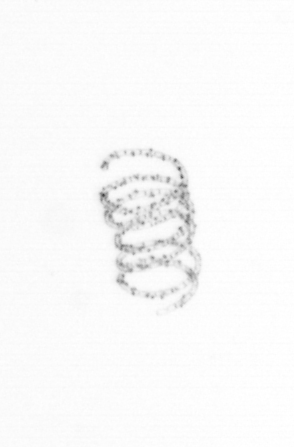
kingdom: Chromista
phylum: Ochrophyta
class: Bacillariophyceae
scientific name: Bacillariophyceae
